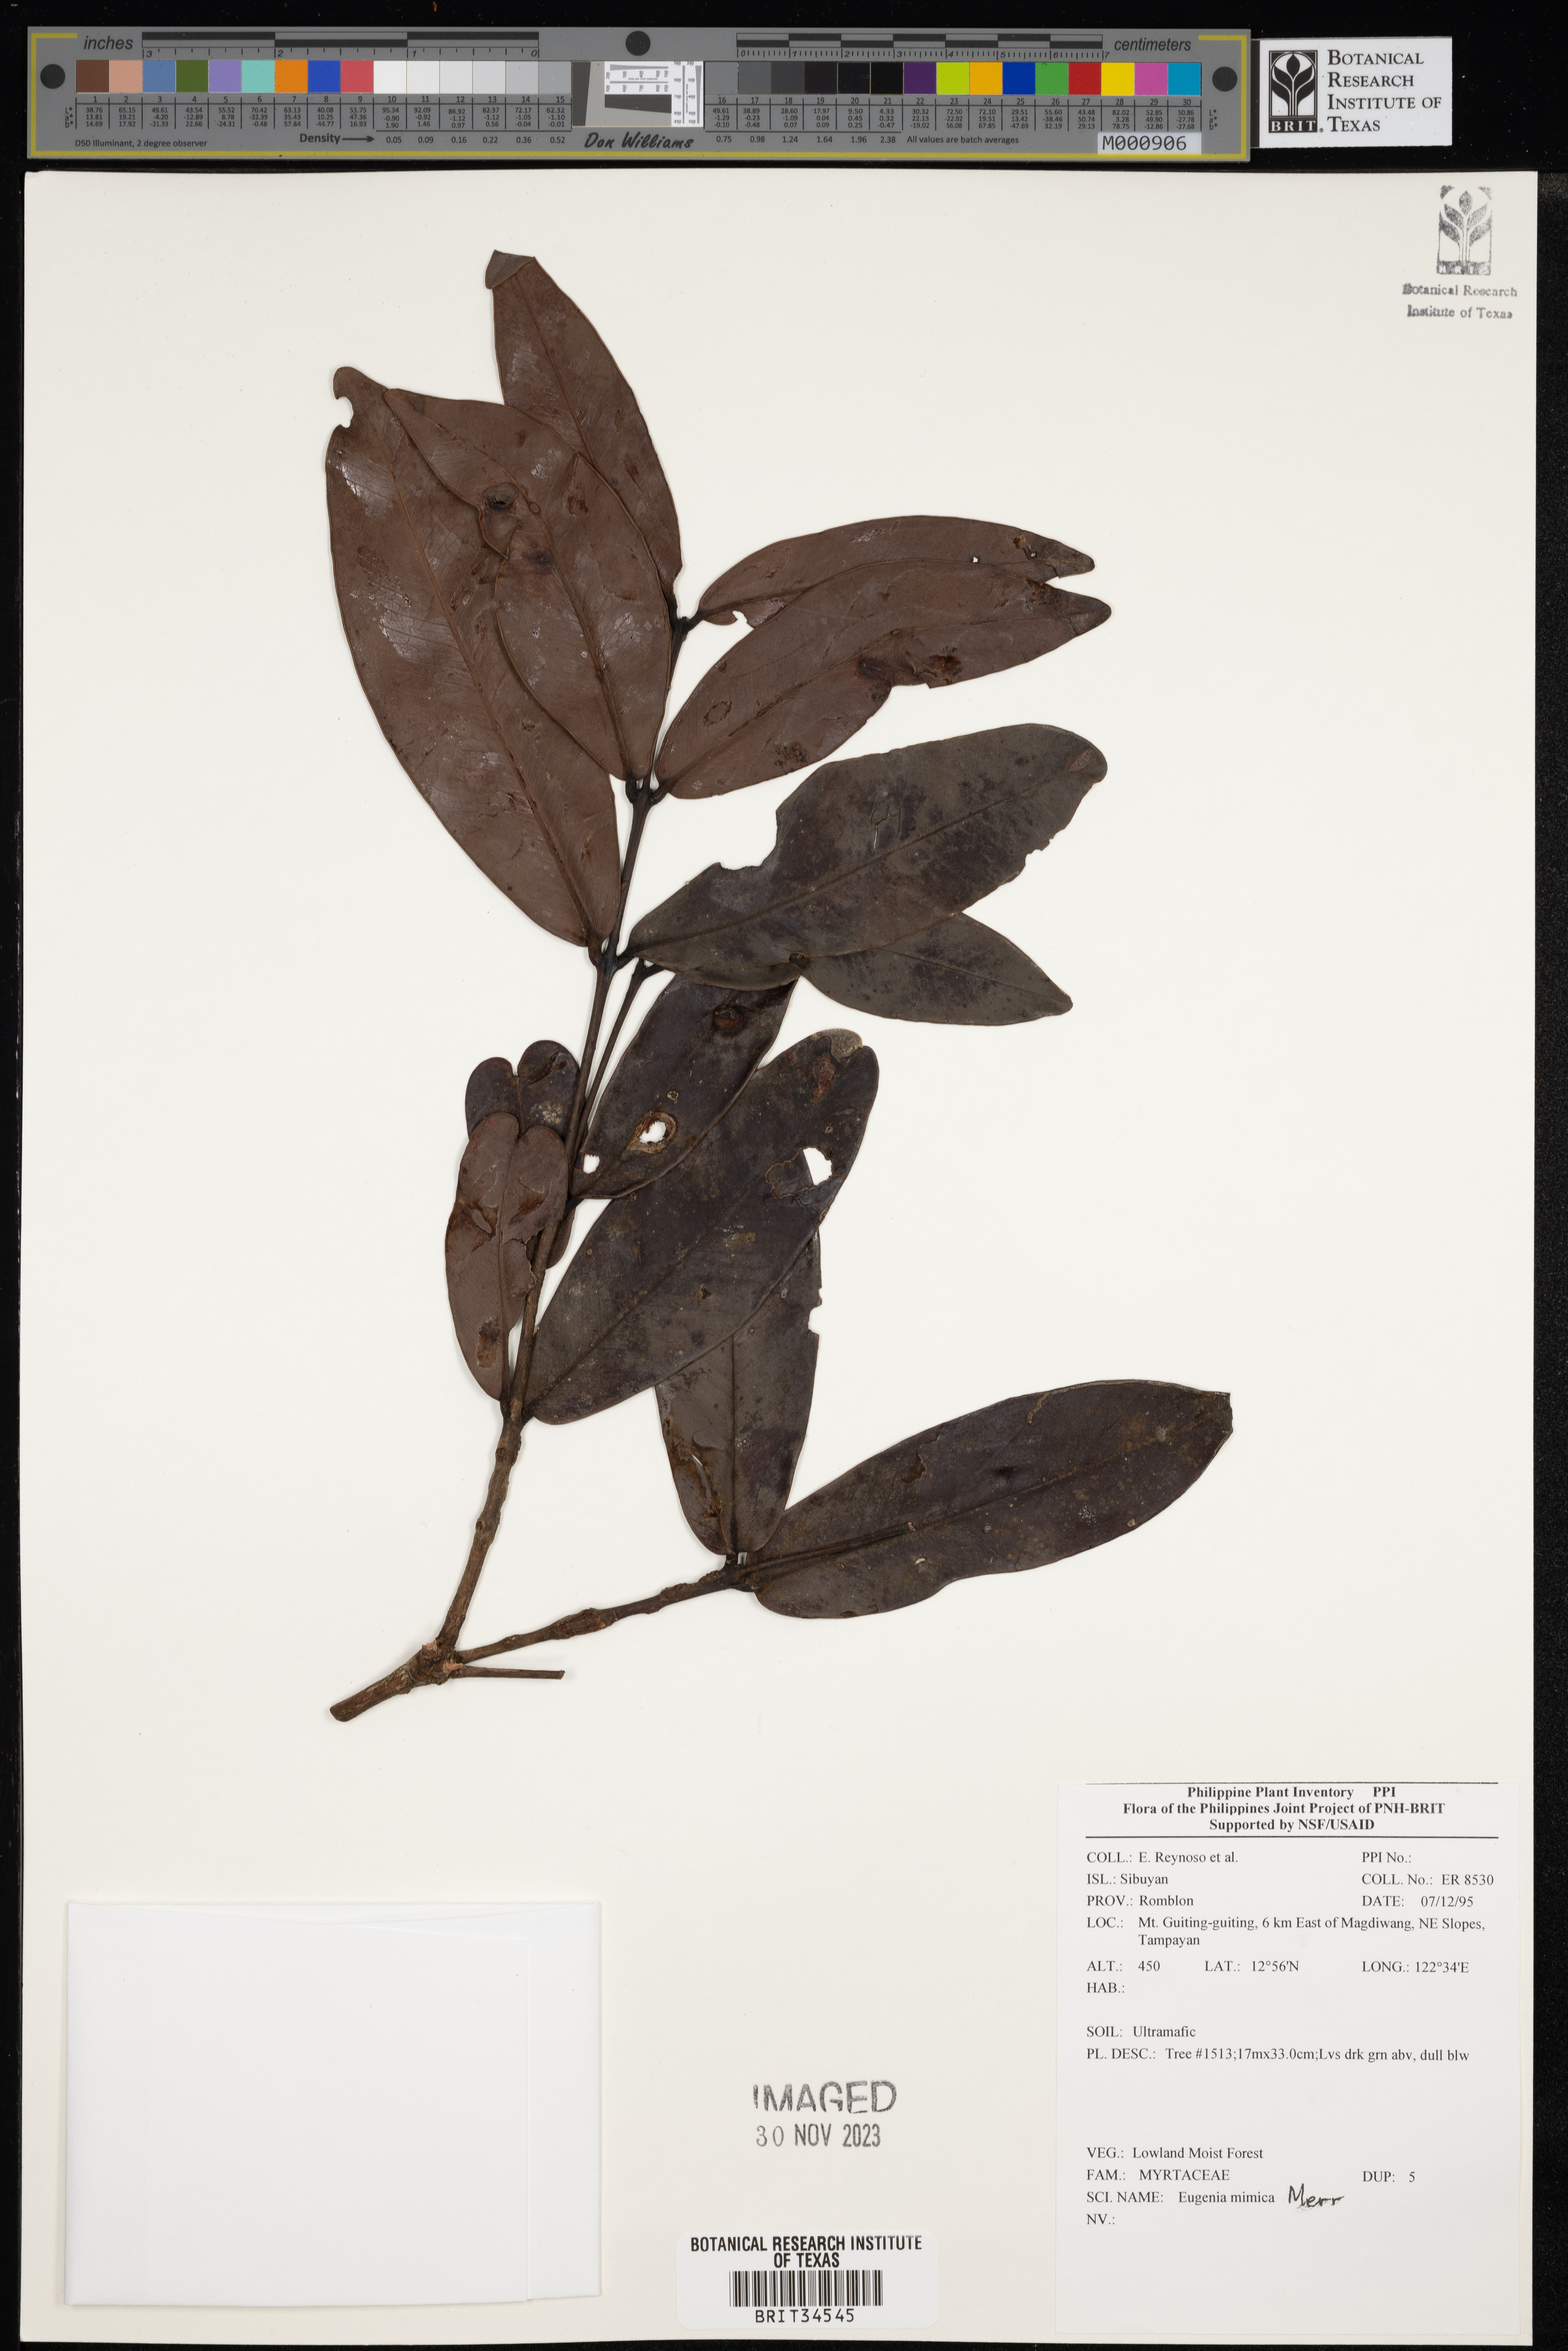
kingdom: Plantae
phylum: Tracheophyta
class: Magnoliopsida
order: Myrtales
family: Myrtaceae
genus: Eugenia
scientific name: Eugenia
